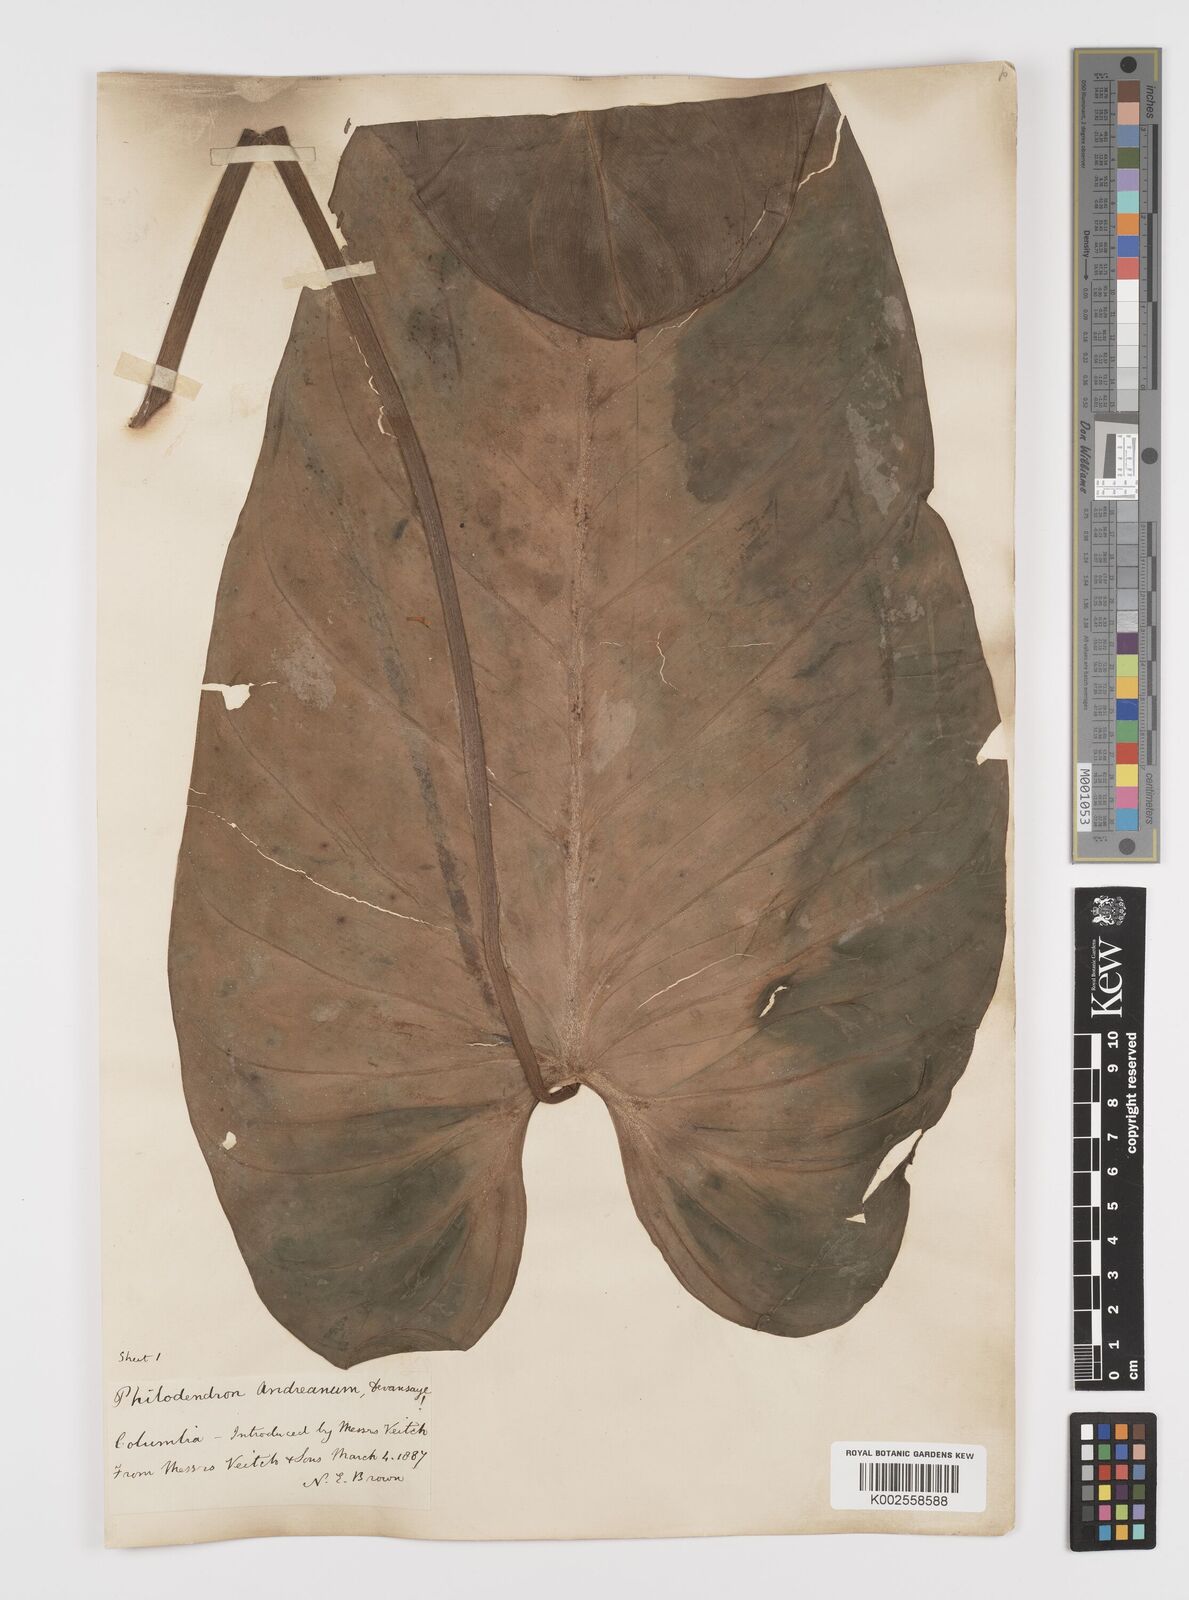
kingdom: Plantae
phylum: Tracheophyta
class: Liliopsida
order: Alismatales
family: Araceae
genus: Philodendron
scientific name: Philodendron melanochrysum
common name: Black-gold philodendron
